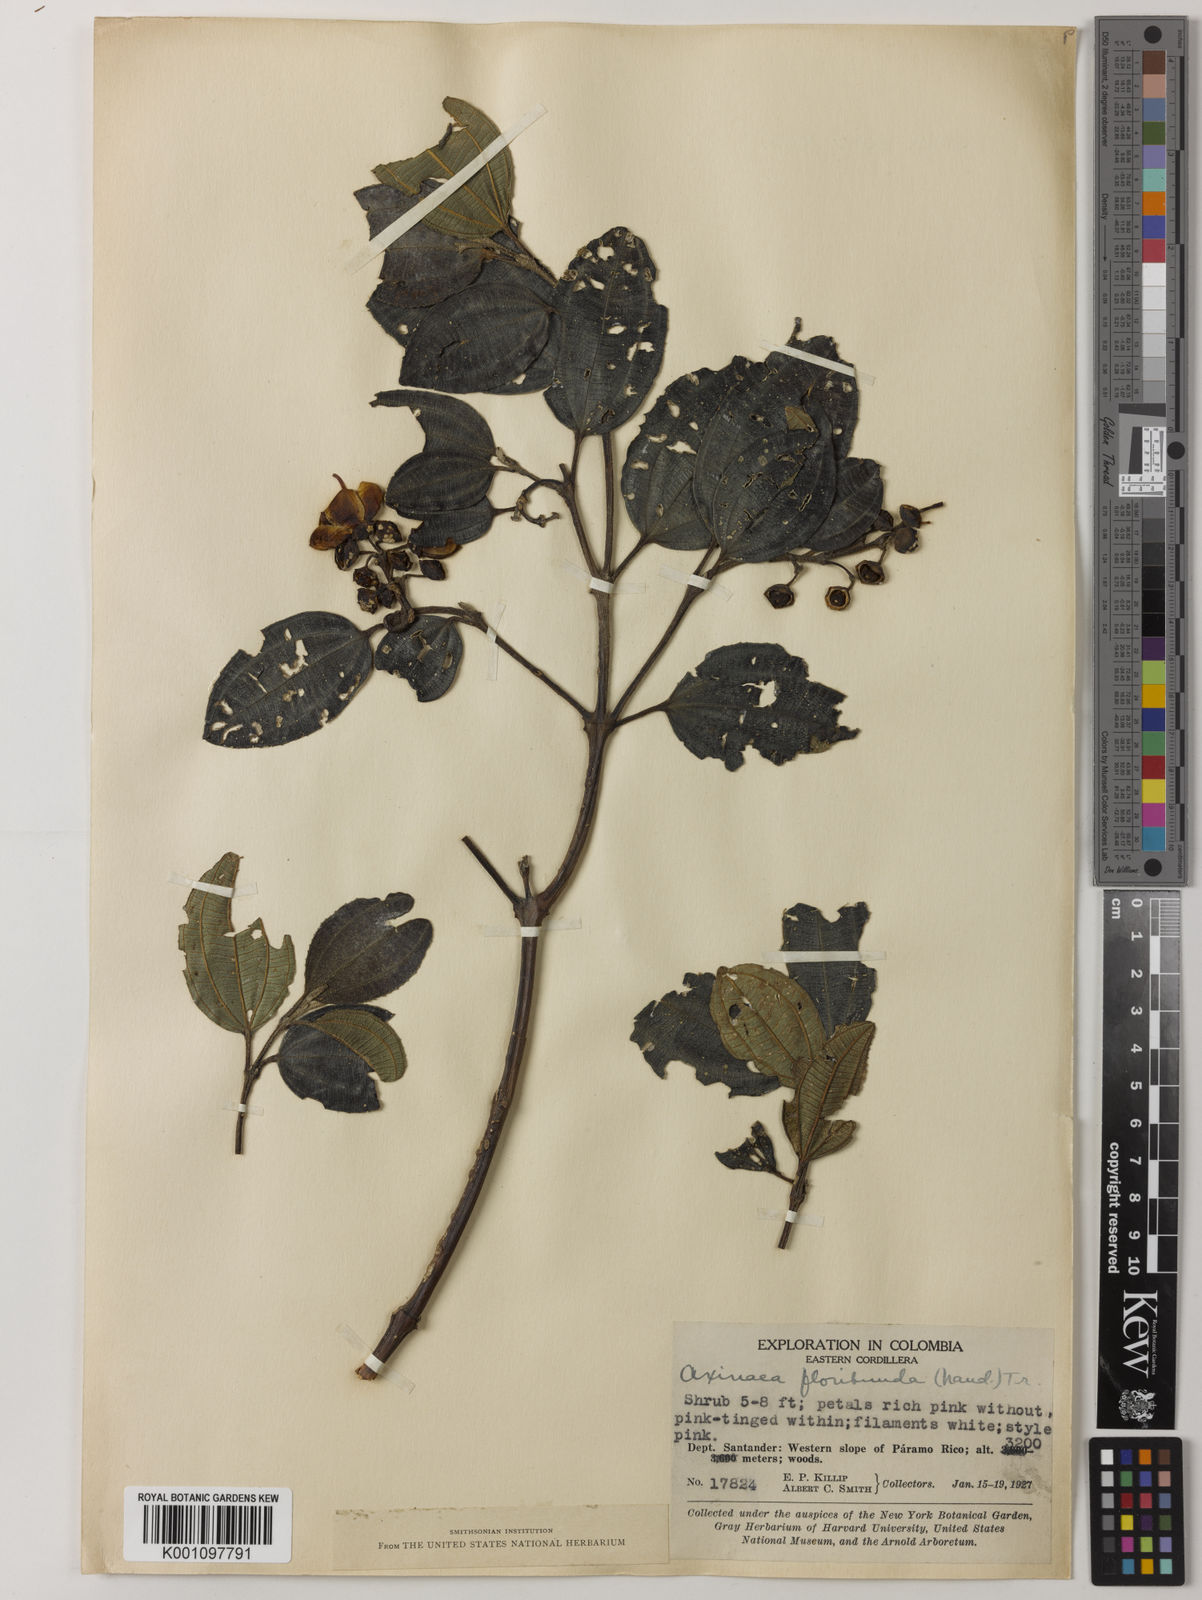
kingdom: Plantae
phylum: Tracheophyta
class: Magnoliopsida
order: Myrtales
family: Melastomataceae
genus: Axinaea
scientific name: Axinaea
